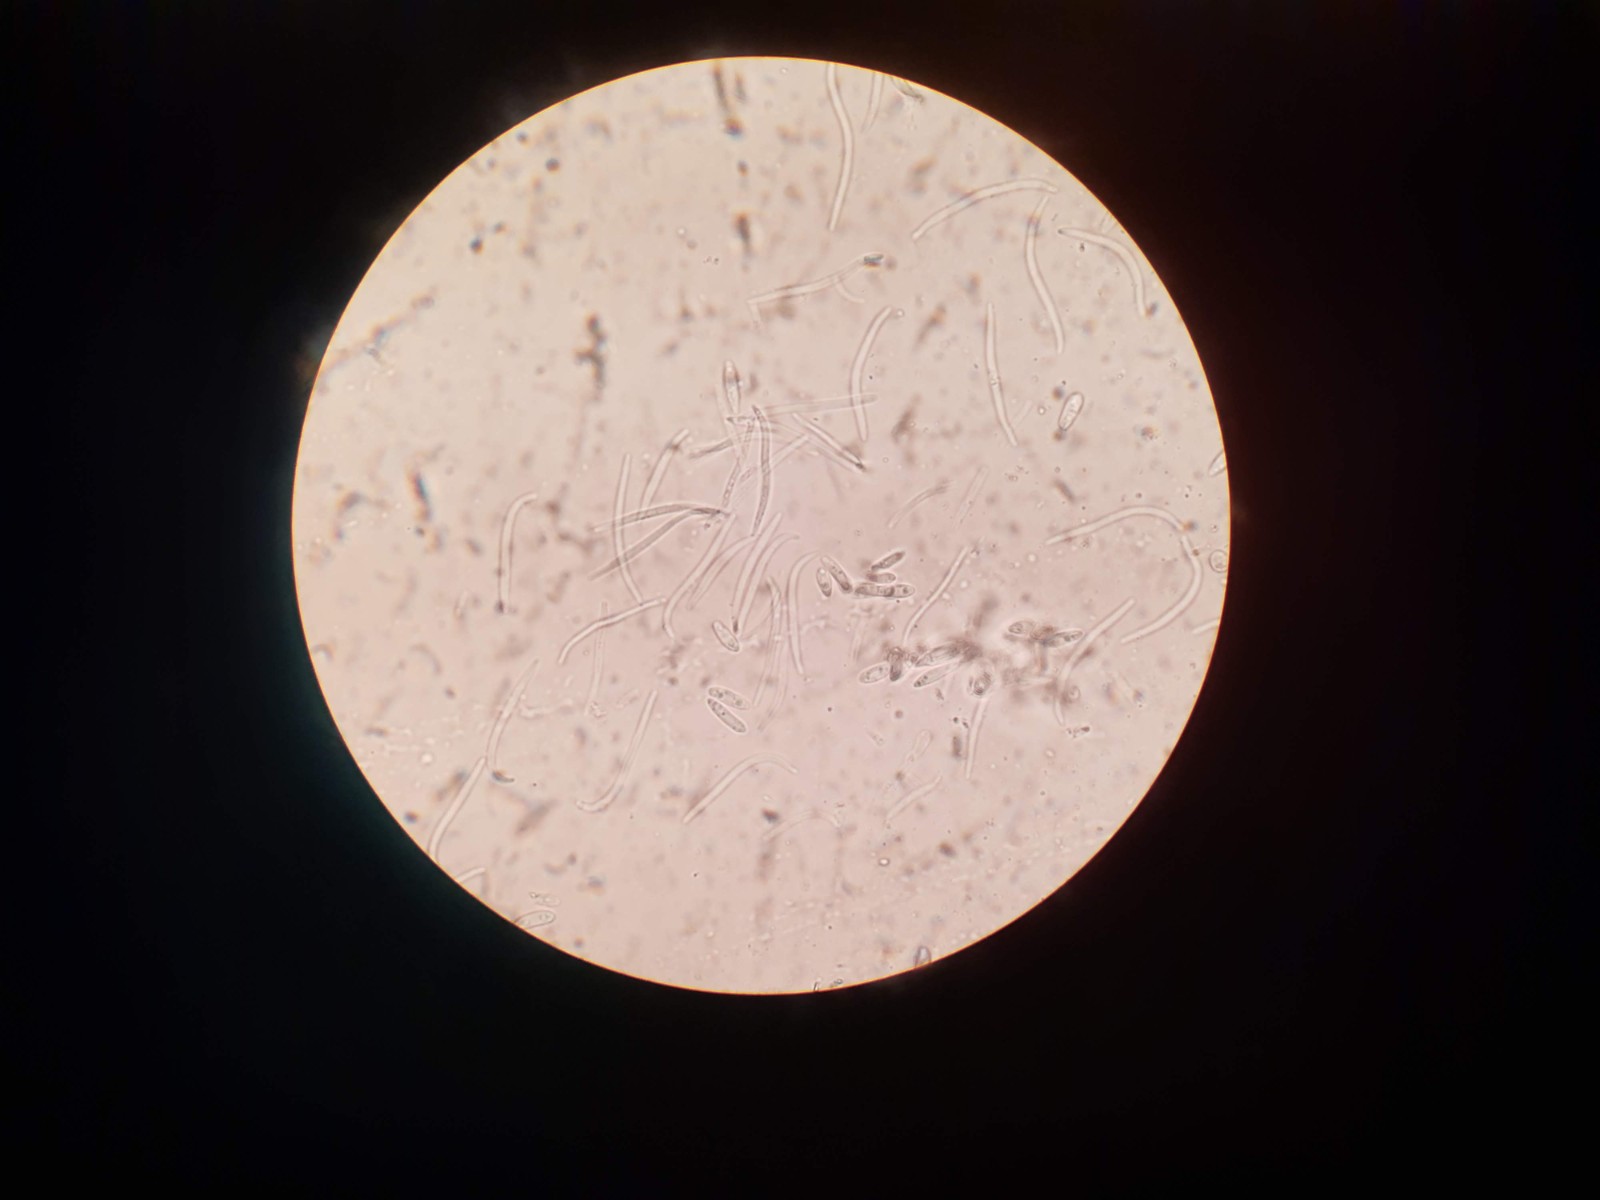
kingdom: Fungi
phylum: Ascomycota
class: Sordariomycetes
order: Diaporthales
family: Diaporthaceae
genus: Diaporthe
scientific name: Diaporthe cryptica
